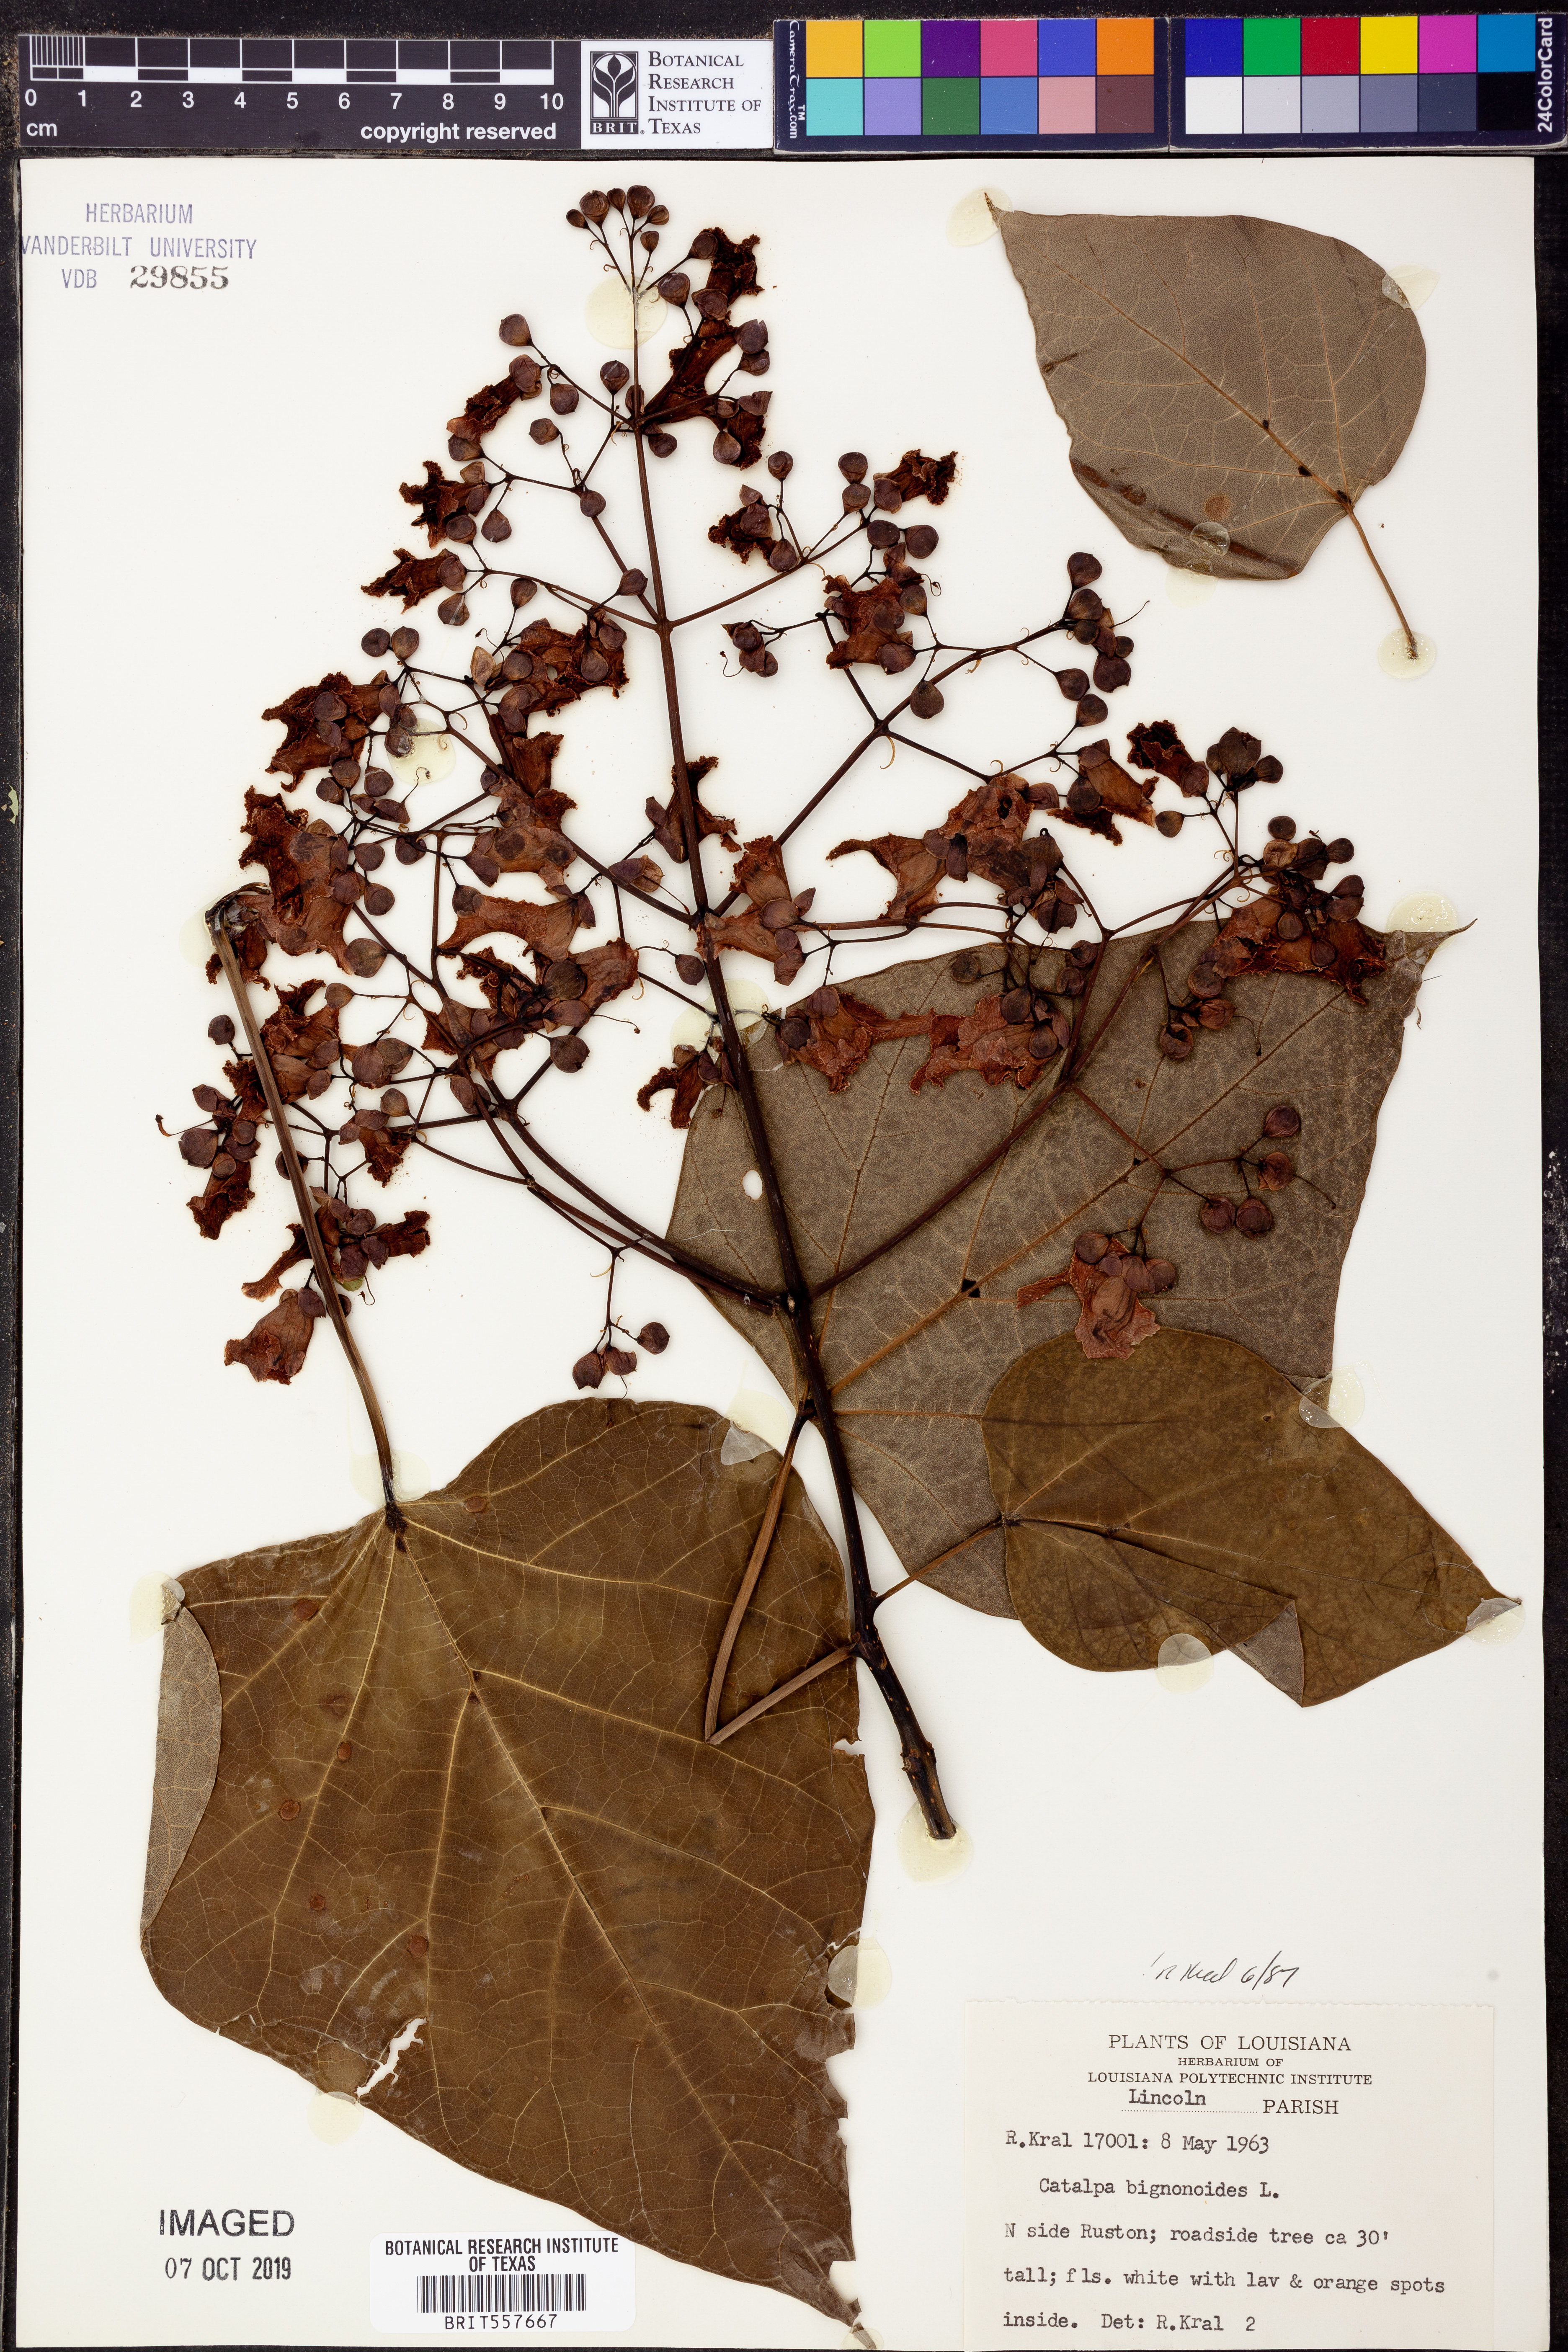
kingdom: Plantae
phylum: Tracheophyta
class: Magnoliopsida
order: Lamiales
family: Bignoniaceae
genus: Catalpa
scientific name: Catalpa bignonioides
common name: Southern catalpa
